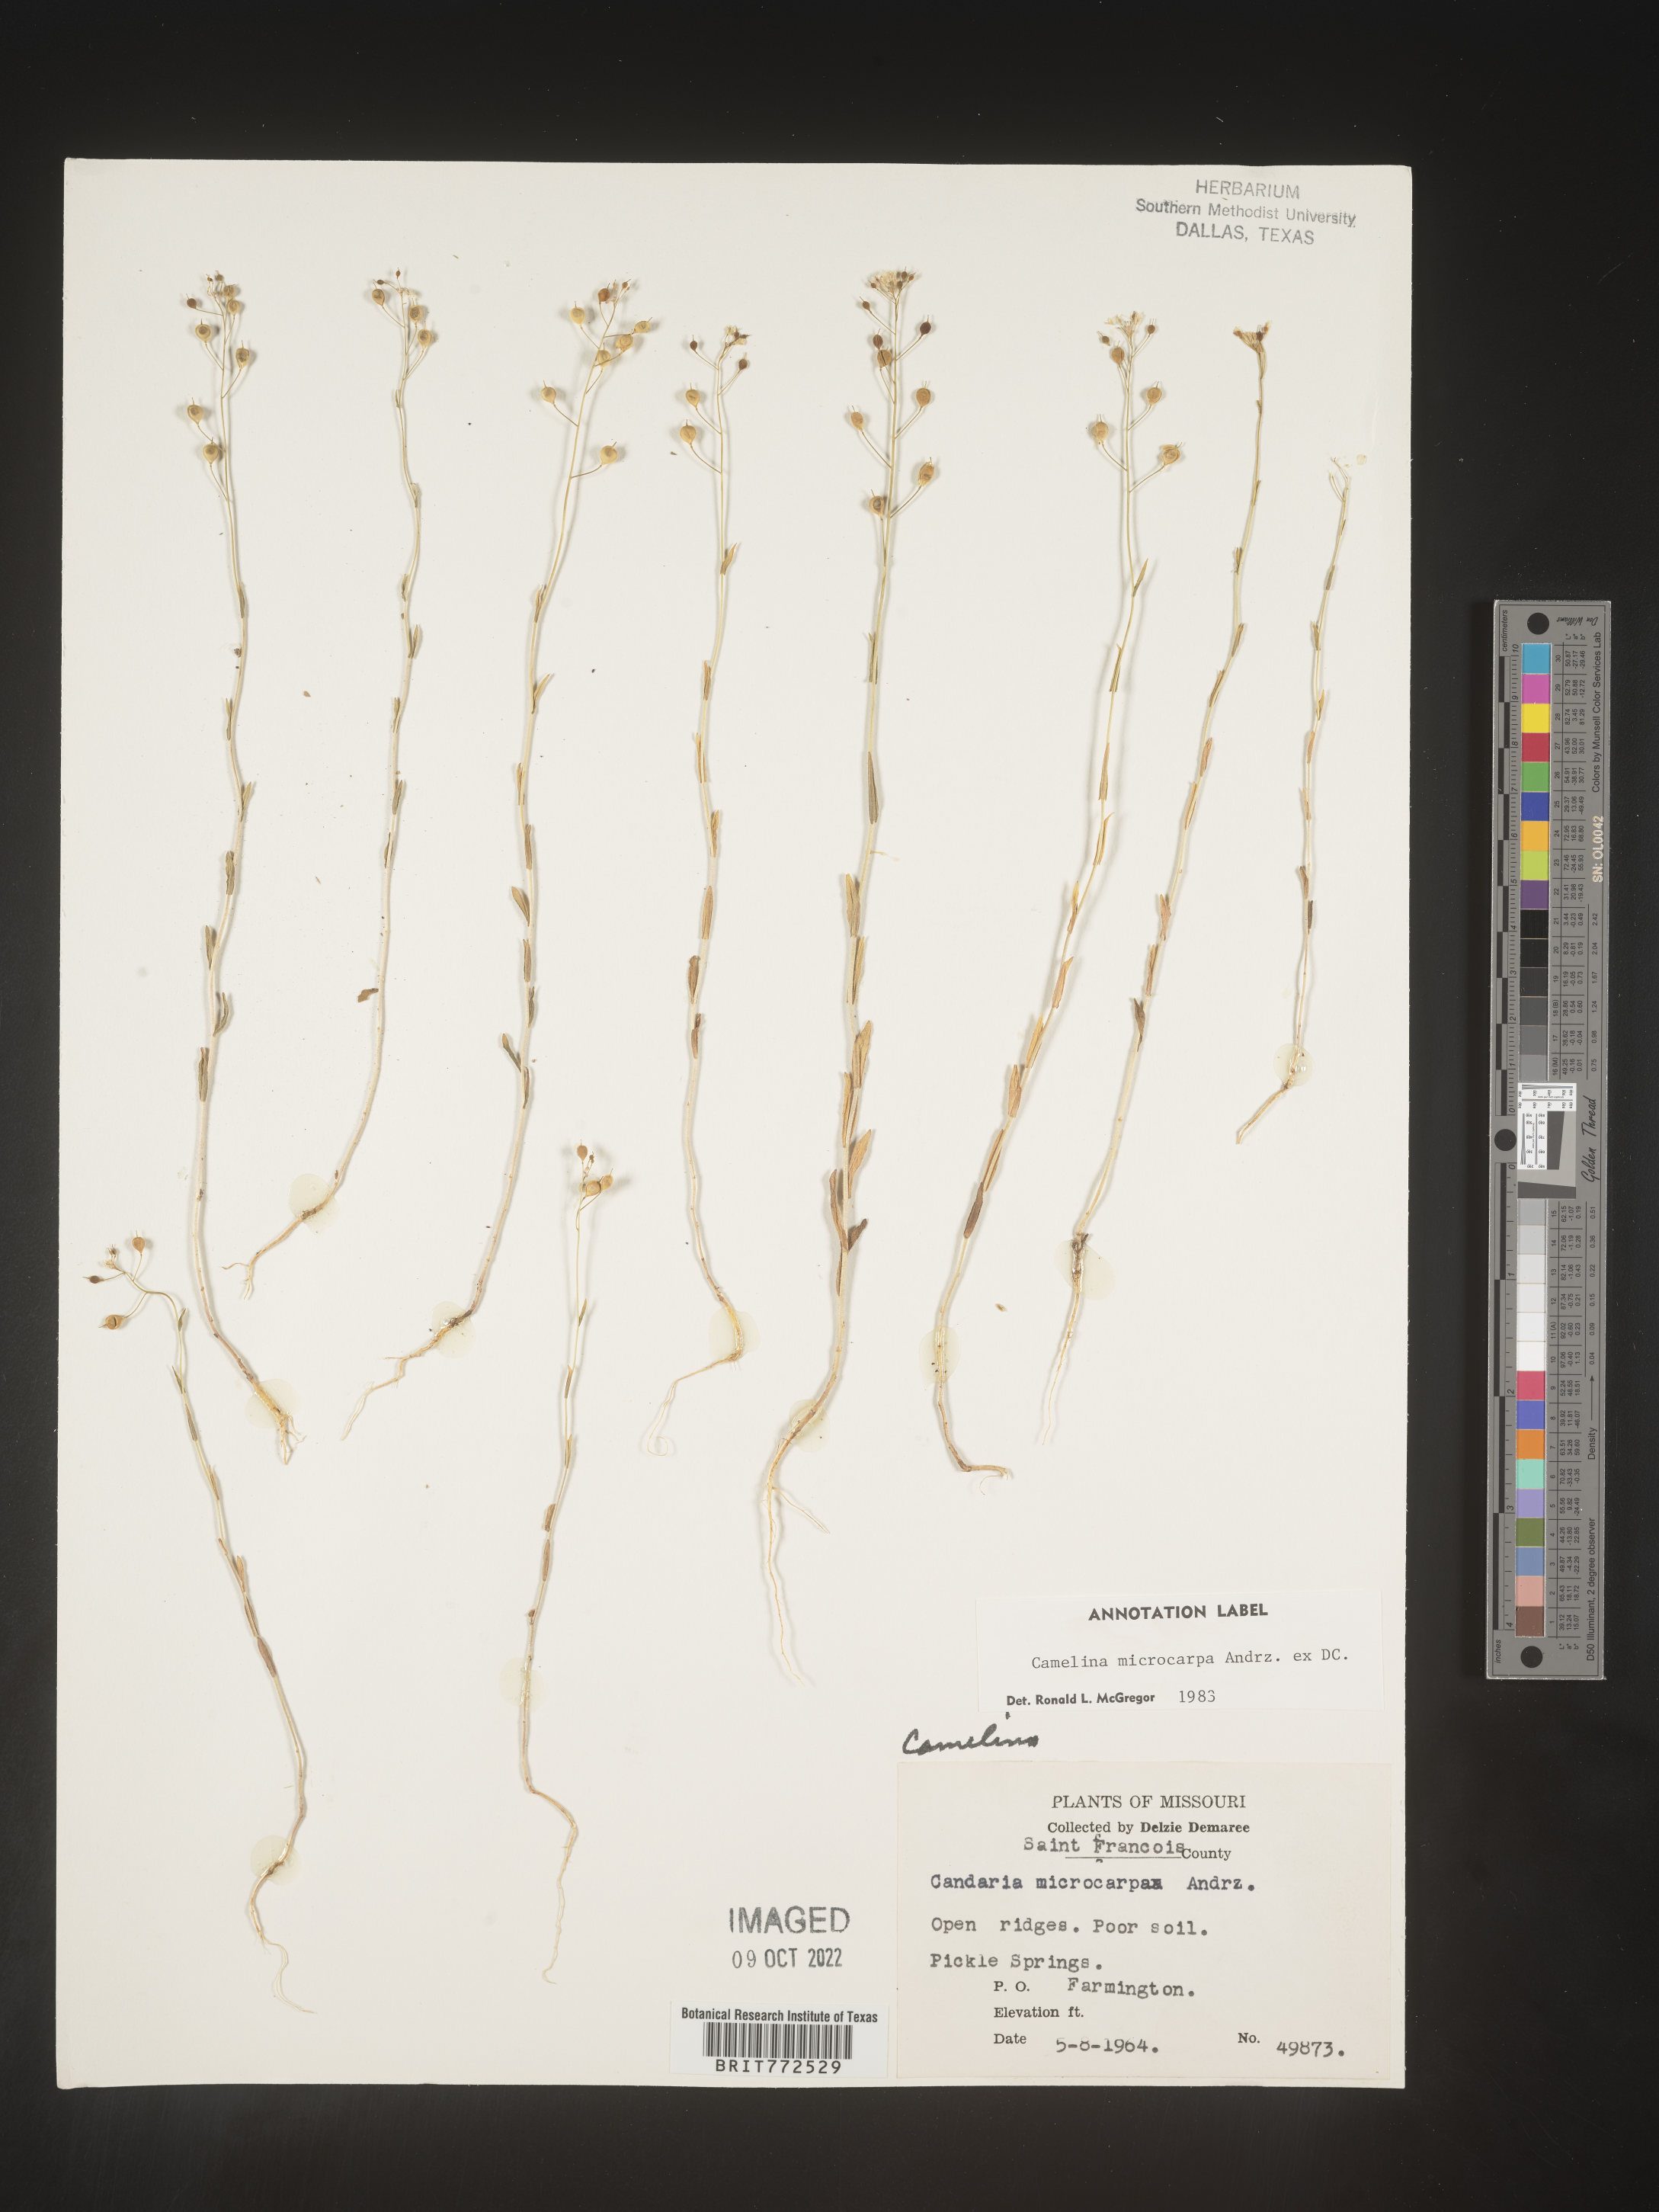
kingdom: Plantae
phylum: Tracheophyta
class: Magnoliopsida
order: Brassicales
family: Brassicaceae
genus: Camelina
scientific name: Camelina microcarpa
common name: Lesser gold-of-pleasure
